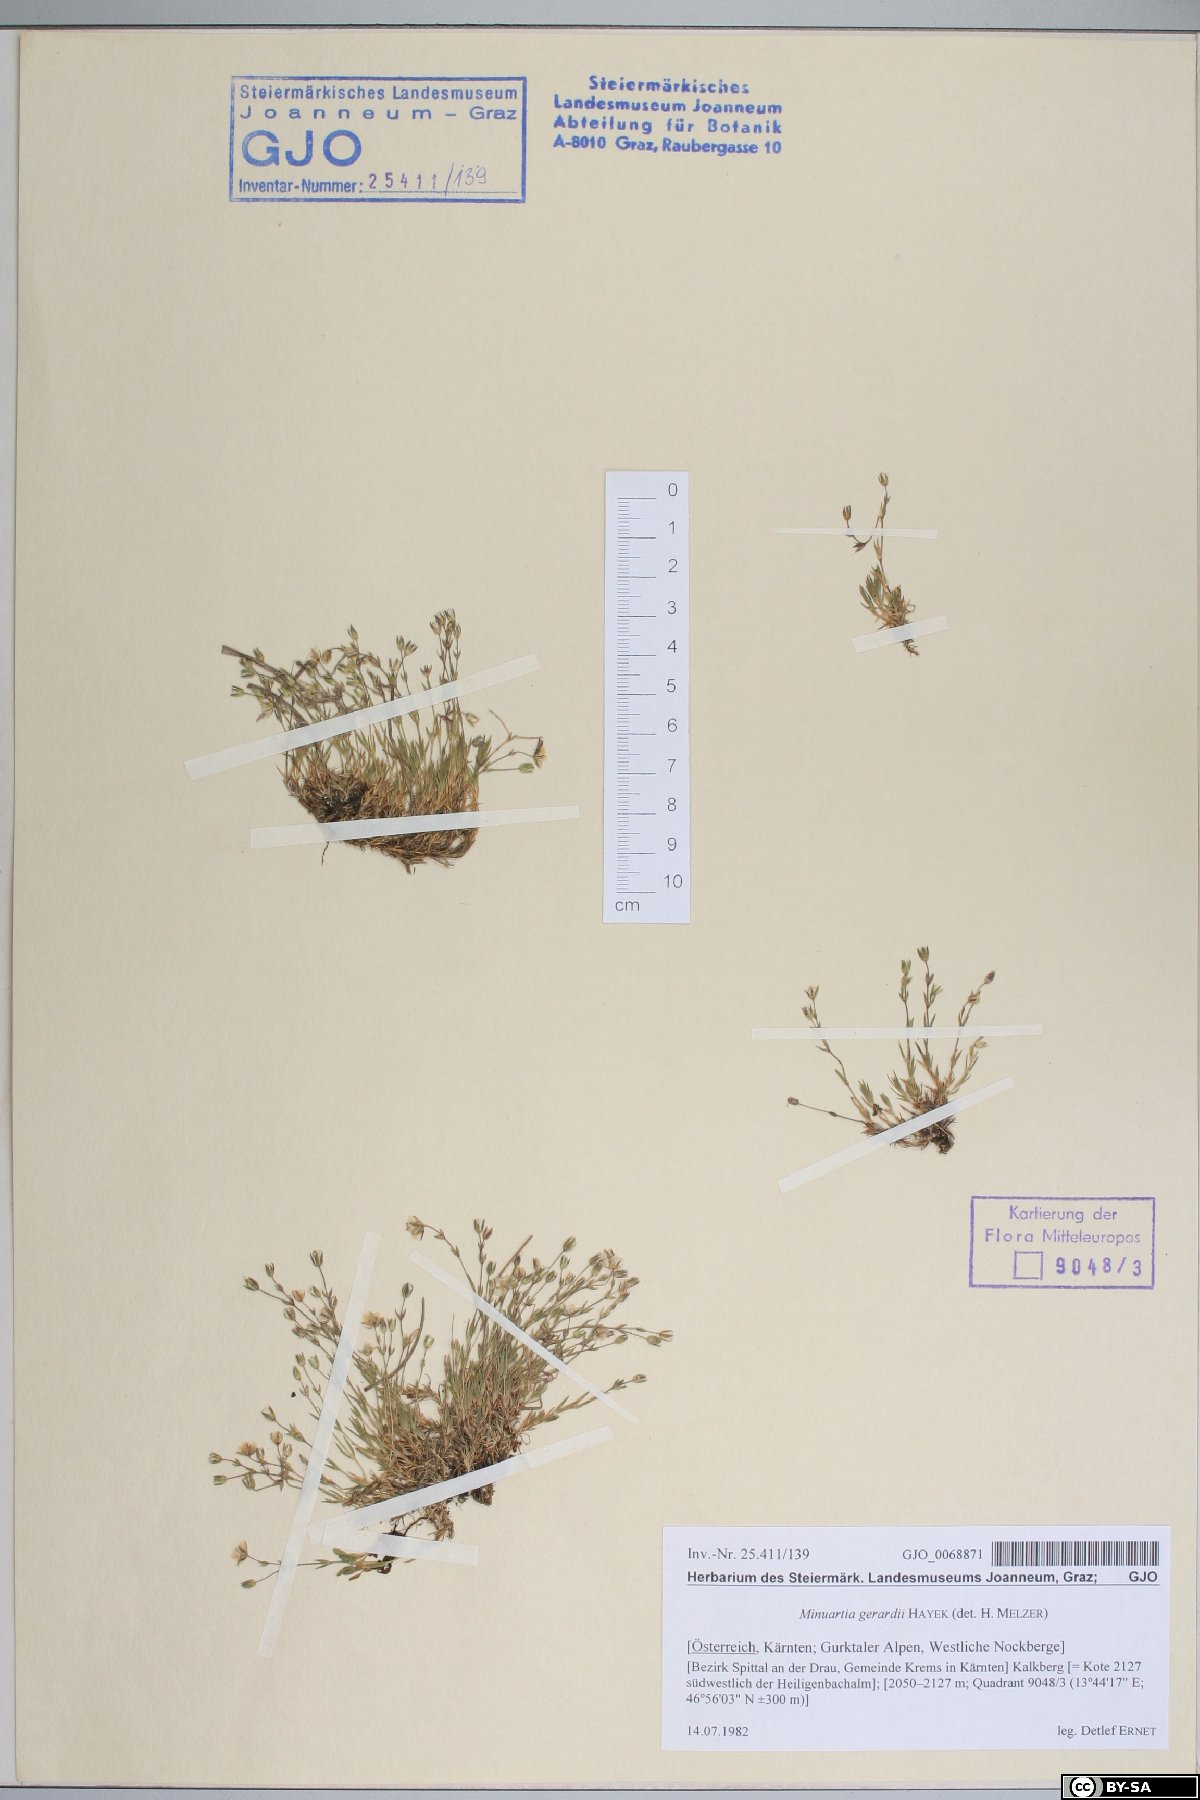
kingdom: Plantae
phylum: Tracheophyta
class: Magnoliopsida
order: Caryophyllales
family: Caryophyllaceae
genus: Sabulina
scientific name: Sabulina verna
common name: Spring sandwort
